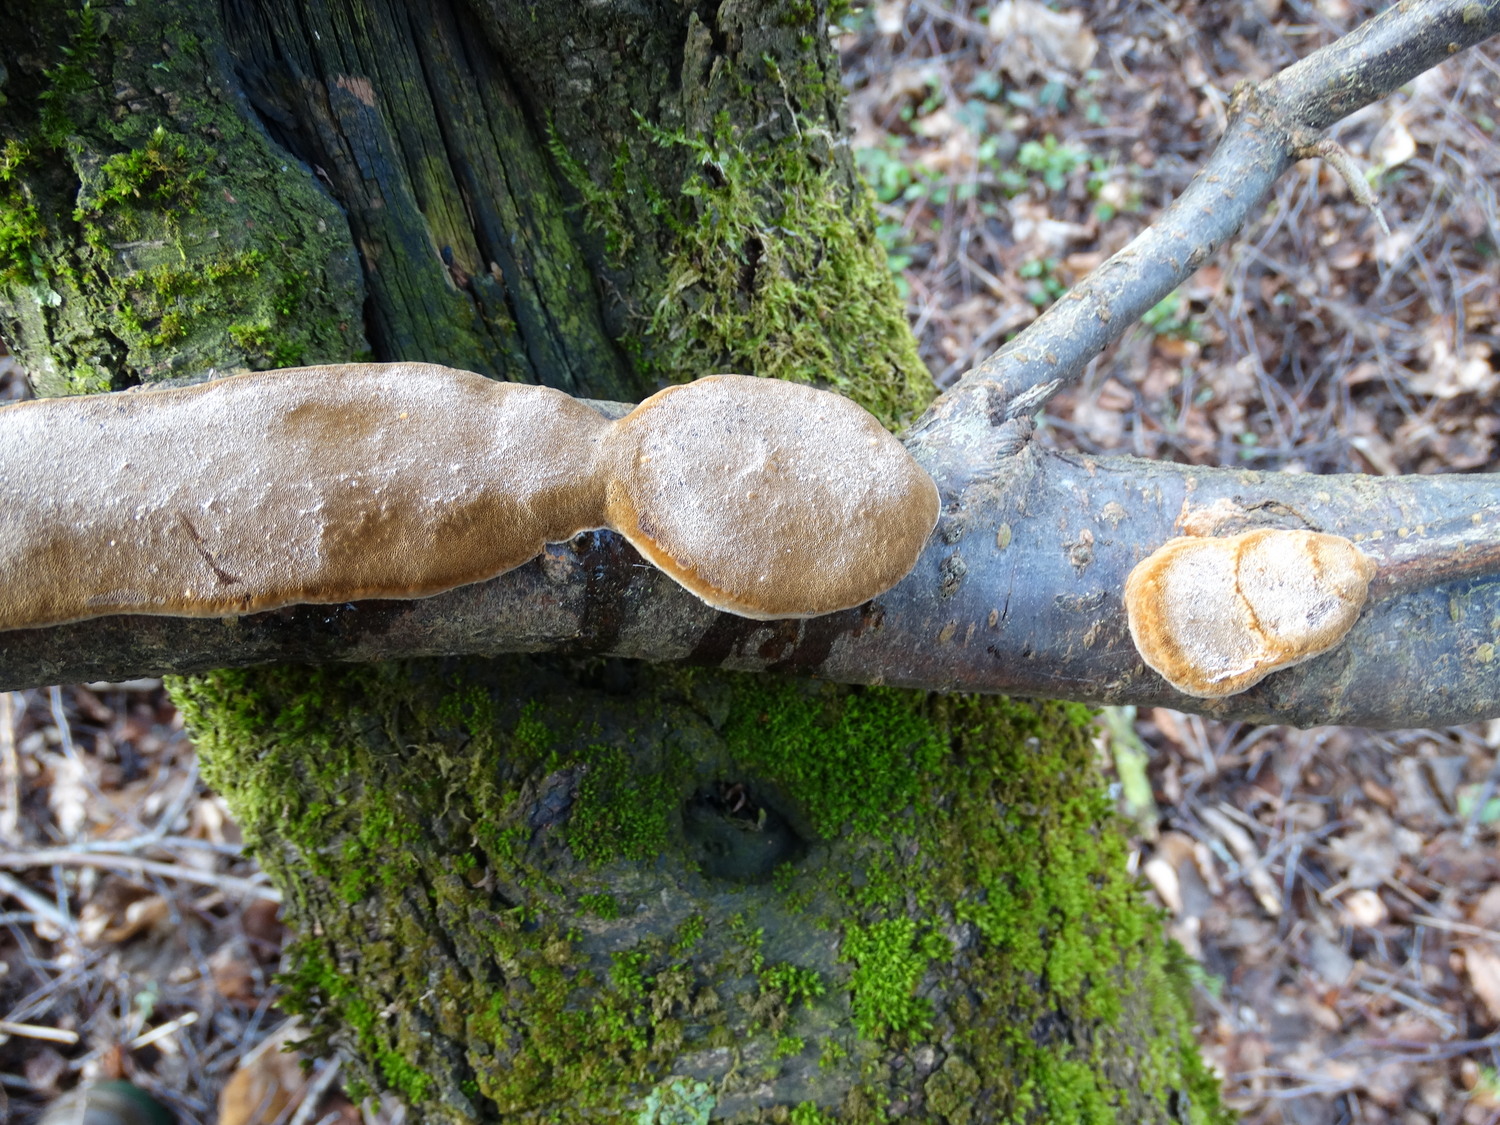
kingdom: Fungi
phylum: Basidiomycota
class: Agaricomycetes
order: Hymenochaetales
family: Hymenochaetaceae
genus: Phellinus
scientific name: Phellinus pomaceus
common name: blomme-ildporesvamp
